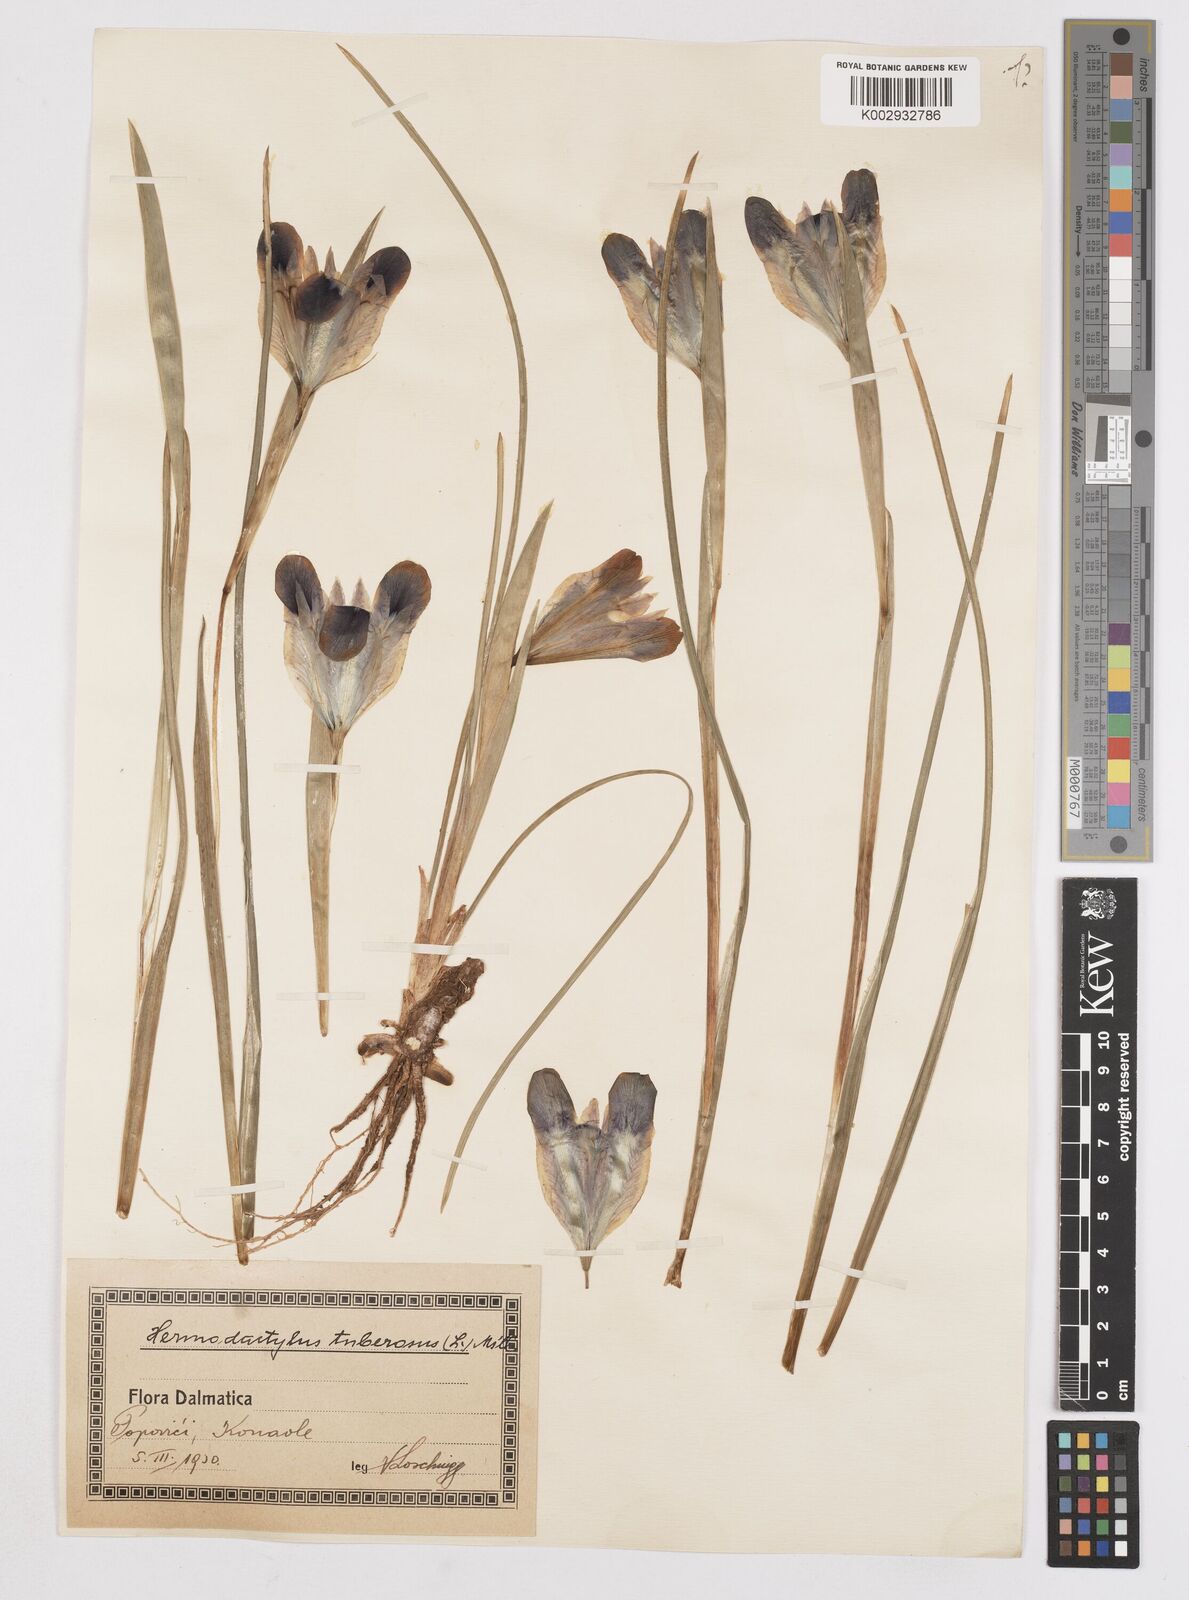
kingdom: Plantae
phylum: Tracheophyta
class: Liliopsida
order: Asparagales
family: Iridaceae
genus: Iris
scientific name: Iris tuberosa
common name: Snake's-head iris
